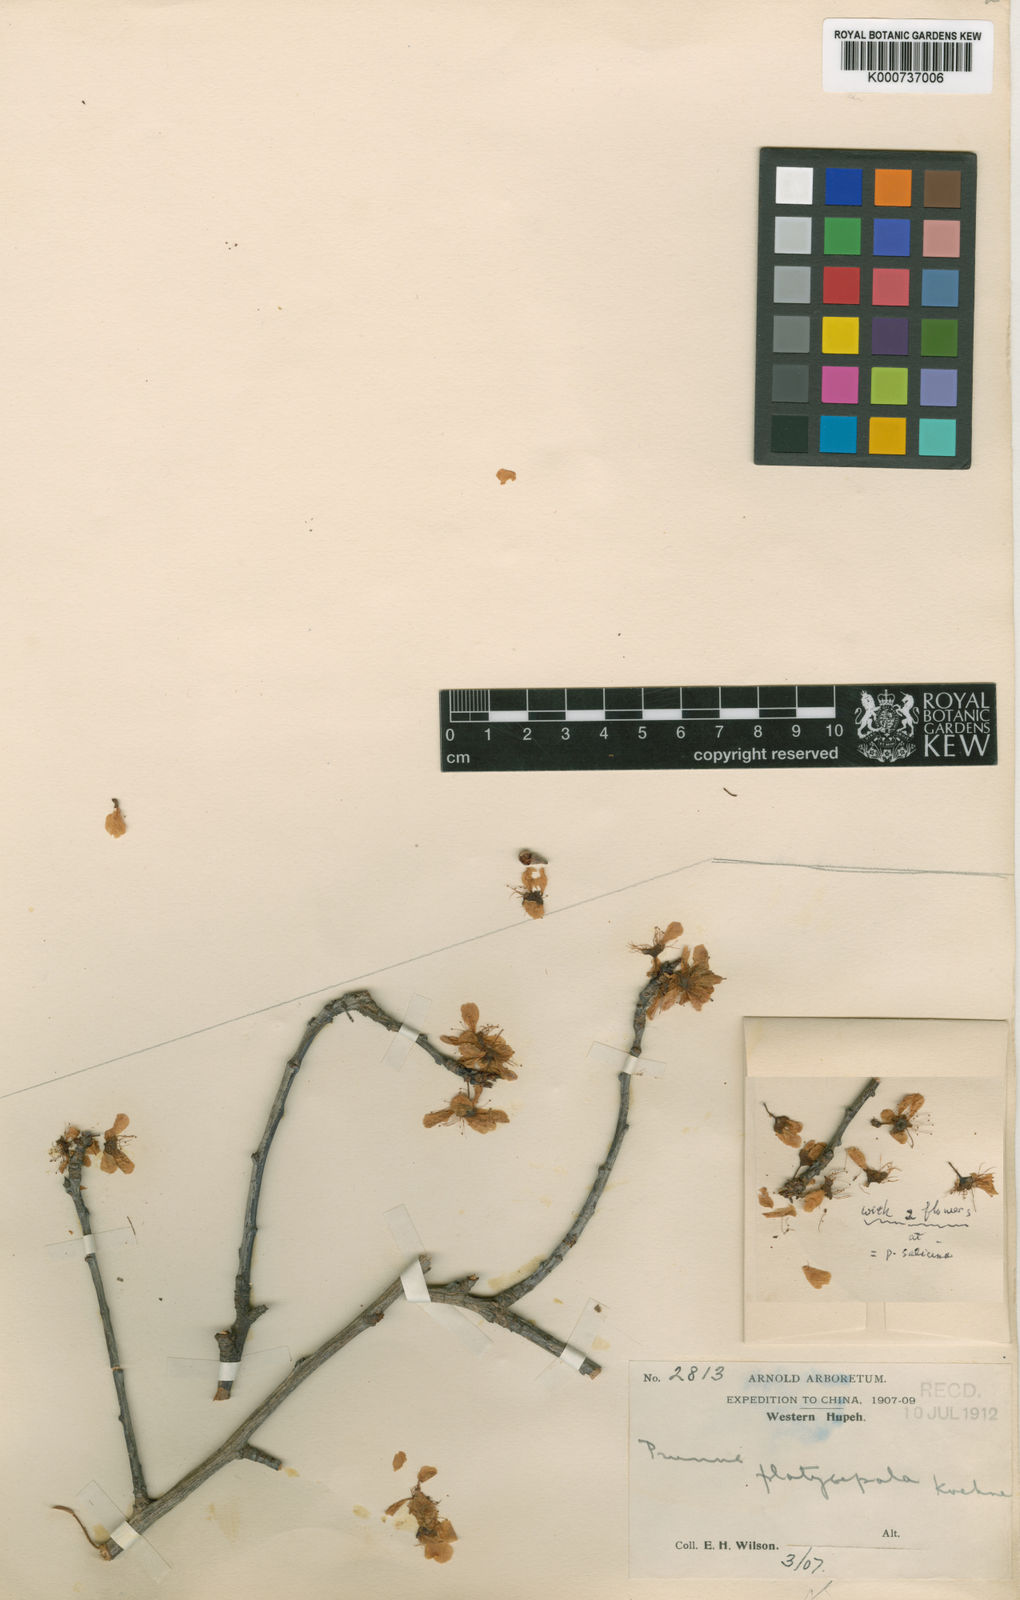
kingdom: Plantae
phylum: Tracheophyta
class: Magnoliopsida
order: Rosales
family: Rosaceae
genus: Prunus
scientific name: Prunus platysepala
